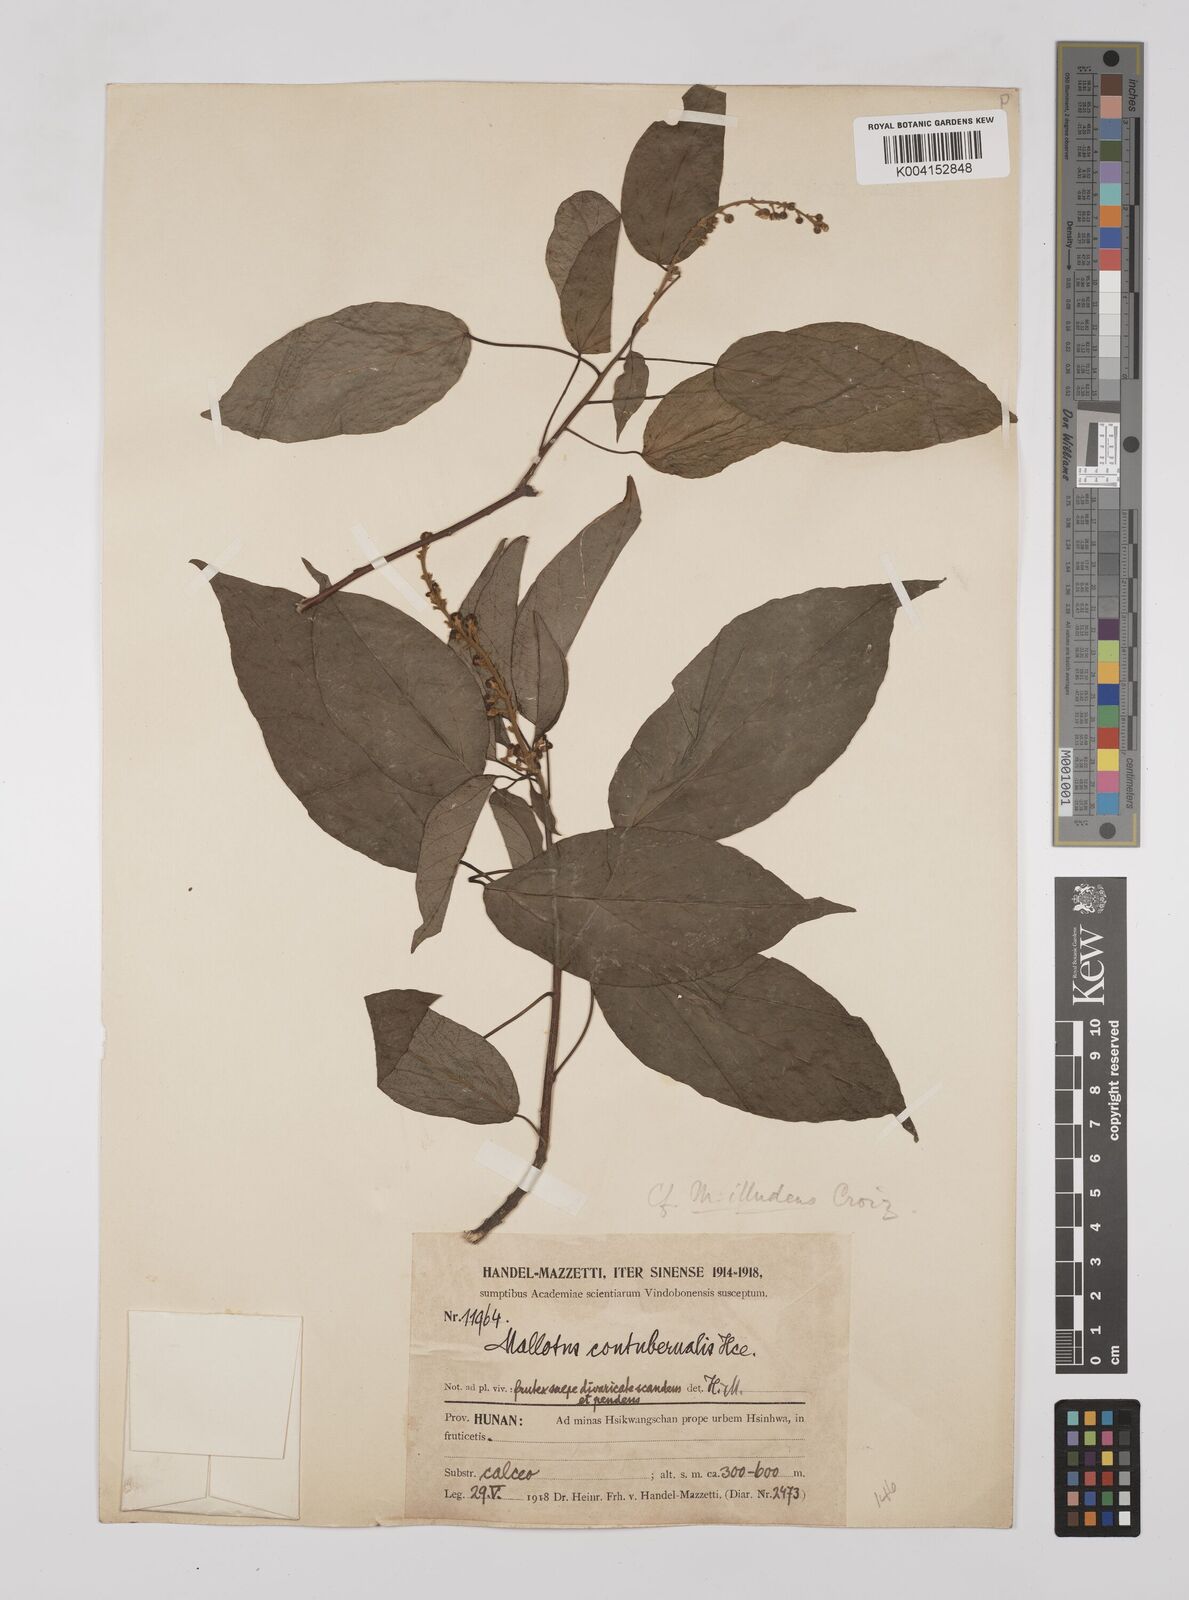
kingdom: Plantae
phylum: Tracheophyta
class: Magnoliopsida
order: Malpighiales
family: Euphorbiaceae
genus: Mallotus
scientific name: Mallotus illudens
